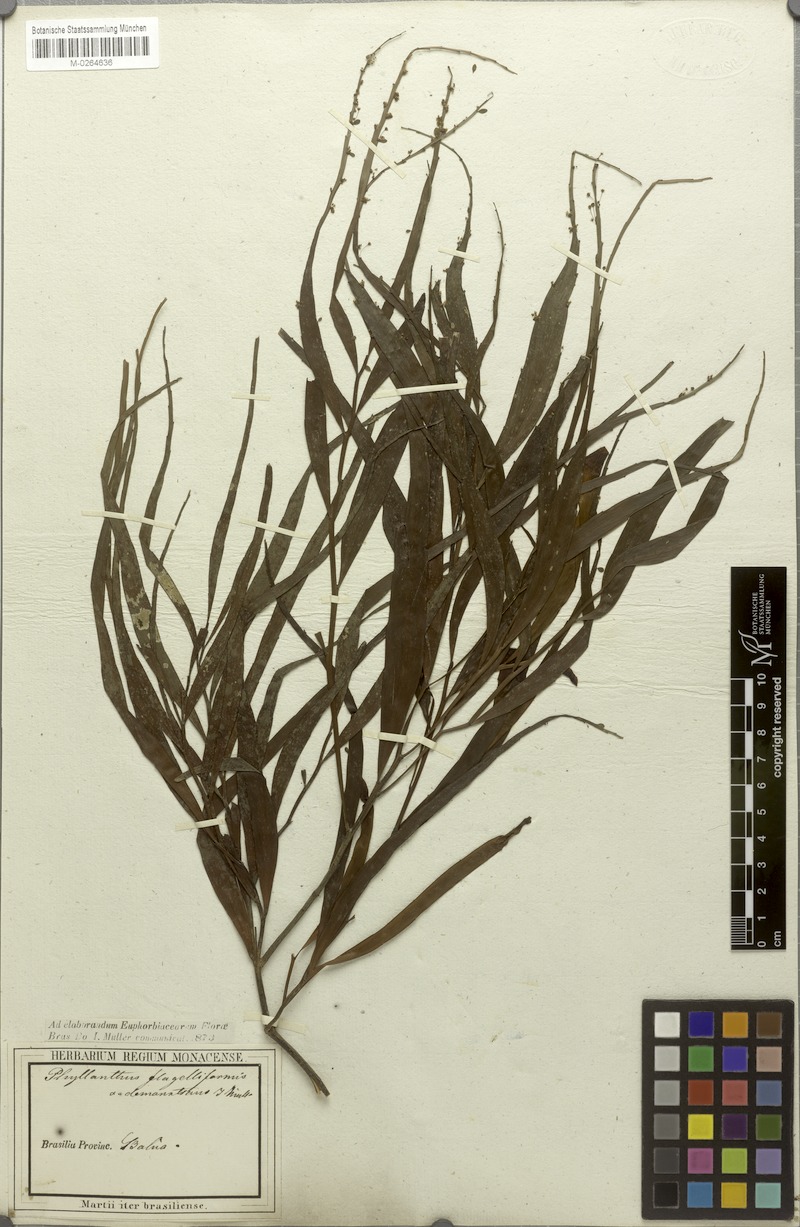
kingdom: Plantae
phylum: Tracheophyta
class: Magnoliopsida
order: Malpighiales
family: Phyllanthaceae
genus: Phyllanthus
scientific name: Phyllanthus eurisladro
